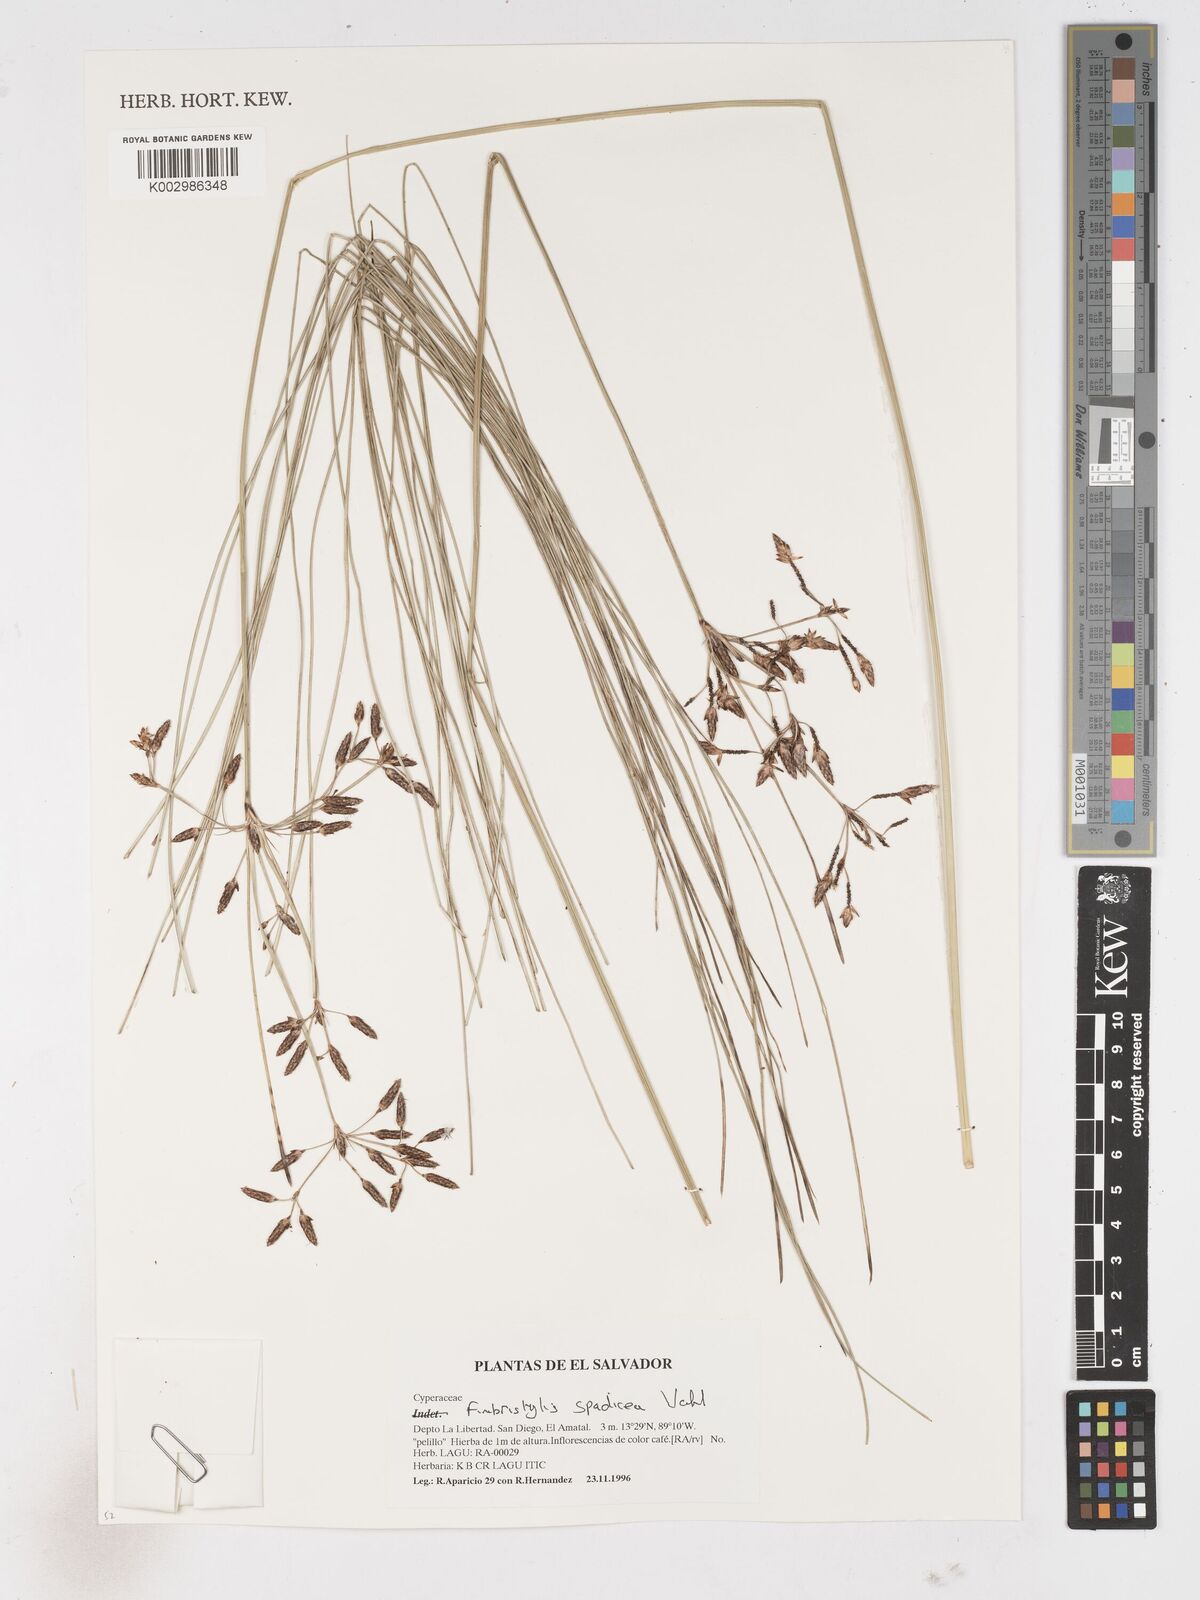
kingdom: Plantae
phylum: Tracheophyta
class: Liliopsida
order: Poales
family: Cyperaceae
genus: Fimbristylis
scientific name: Fimbristylis spadicea
